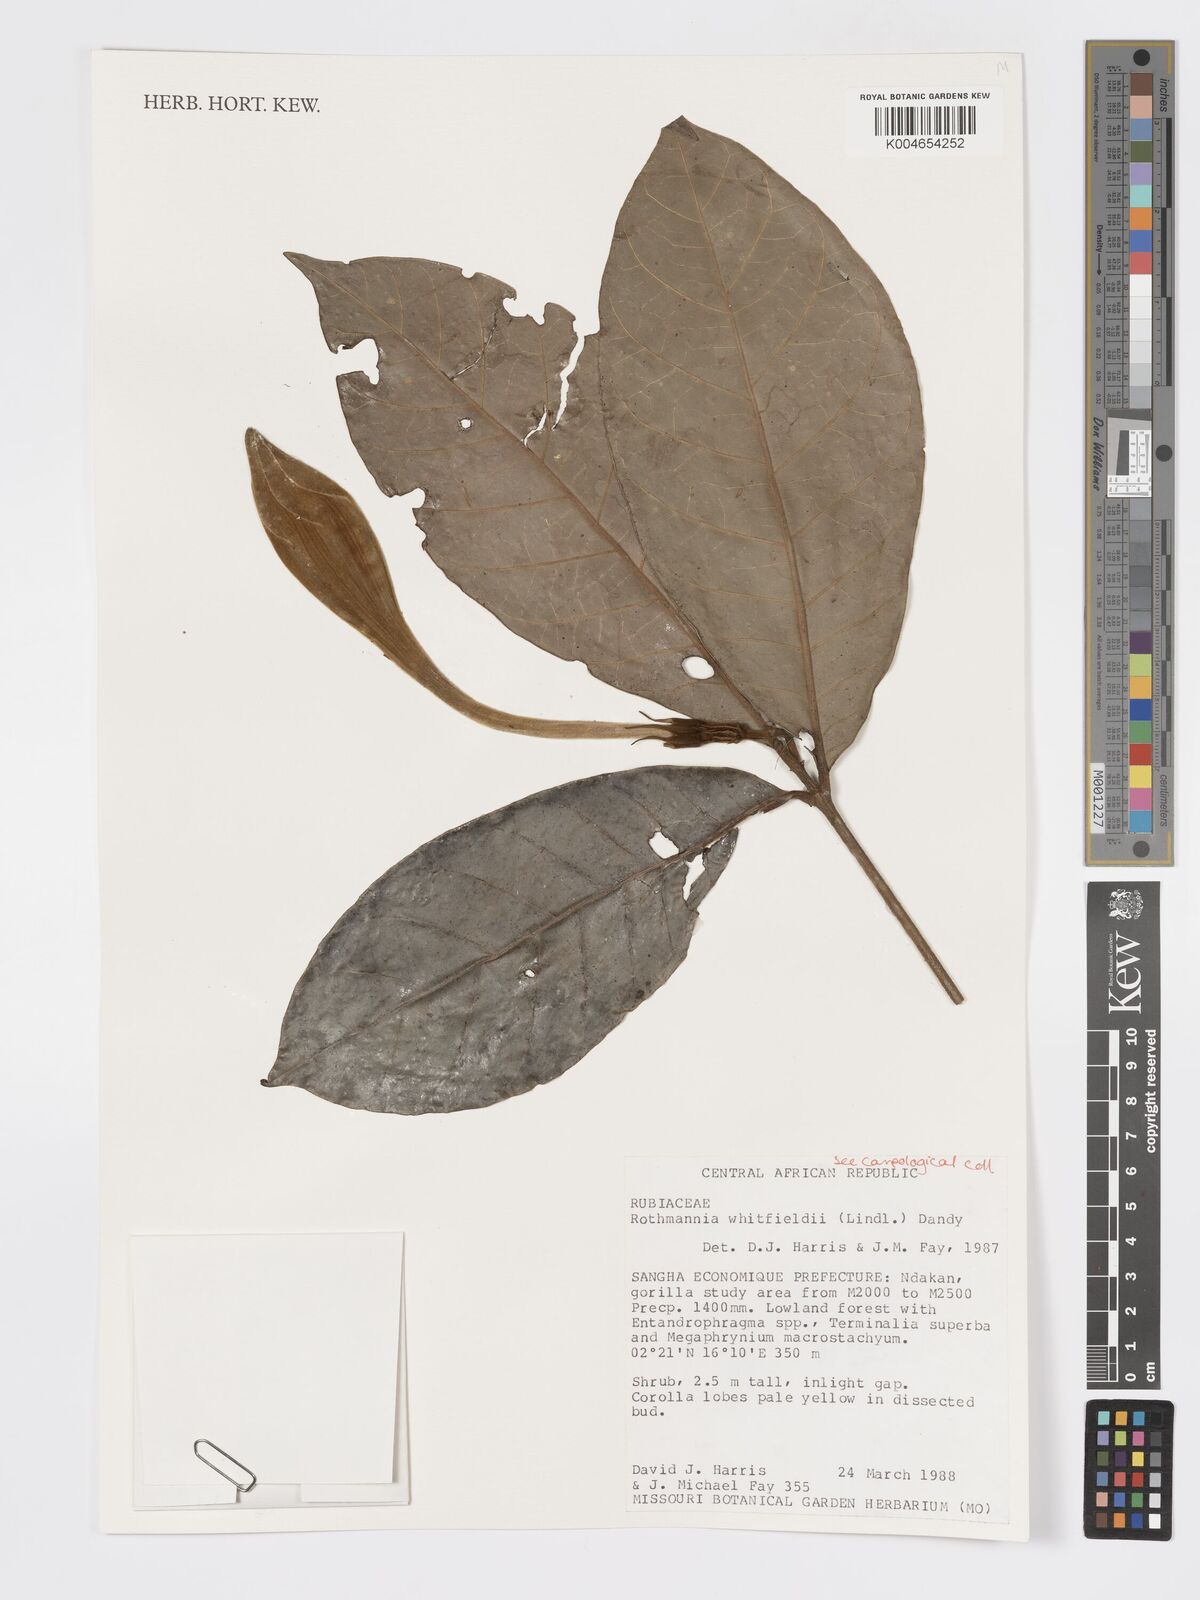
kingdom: Plantae
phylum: Tracheophyta
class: Magnoliopsida
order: Gentianales
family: Rubiaceae
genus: Rothmannia
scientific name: Rothmannia whitfieldii
